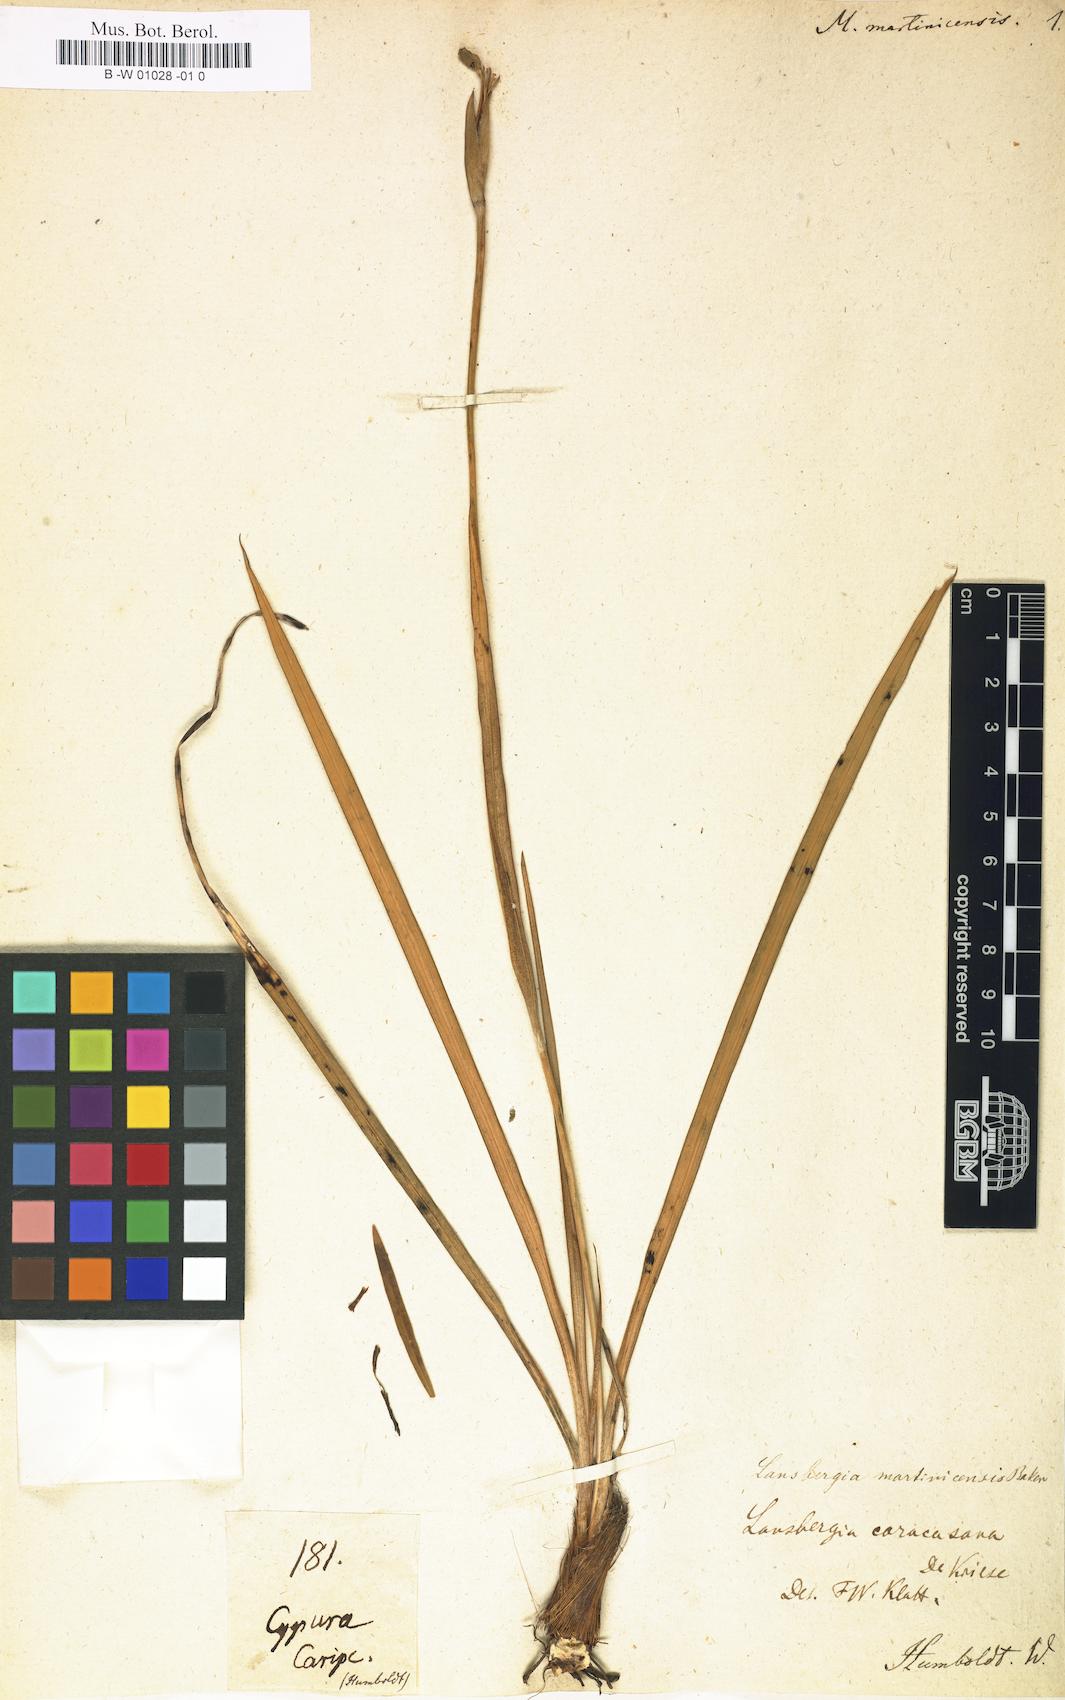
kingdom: Plantae
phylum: Tracheophyta
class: Liliopsida
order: Asparagales
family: Iridaceae
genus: Trimezia
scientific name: Trimezia martinicensis
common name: Martinique trimezia
